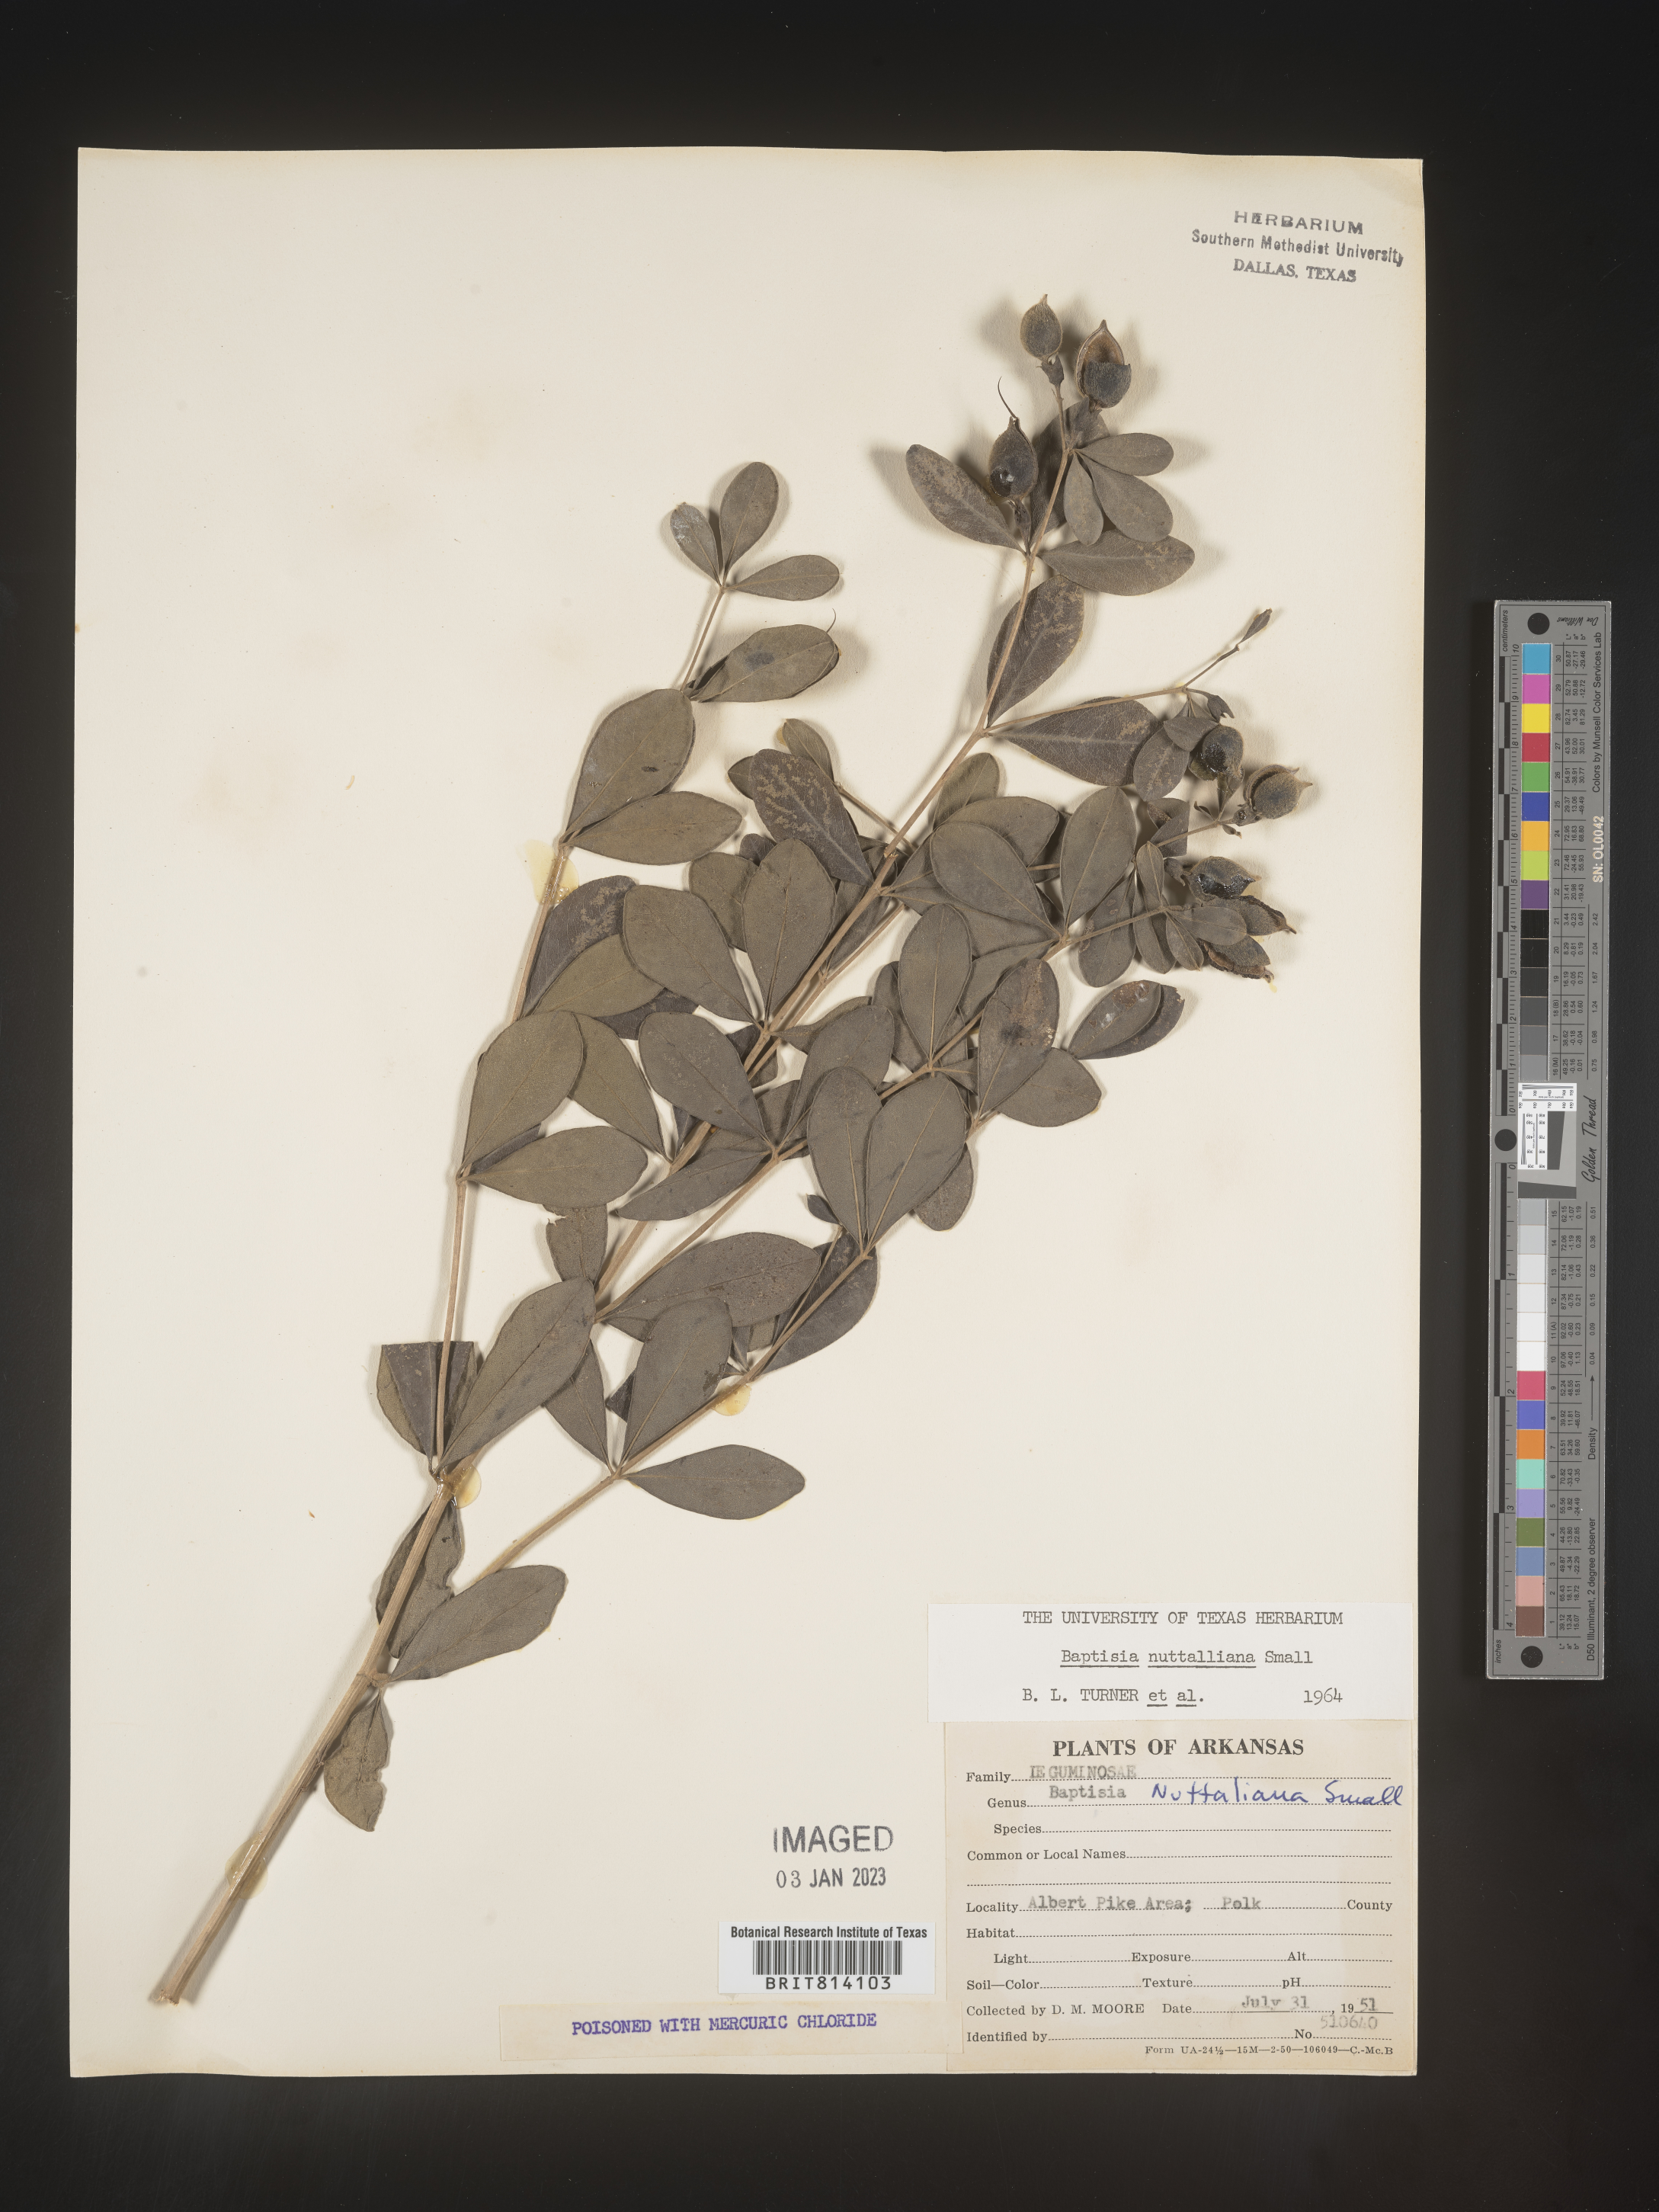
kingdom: Plantae
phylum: Tracheophyta
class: Magnoliopsida
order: Fabales
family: Fabaceae
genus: Baptisia
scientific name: Baptisia nuttalliana
